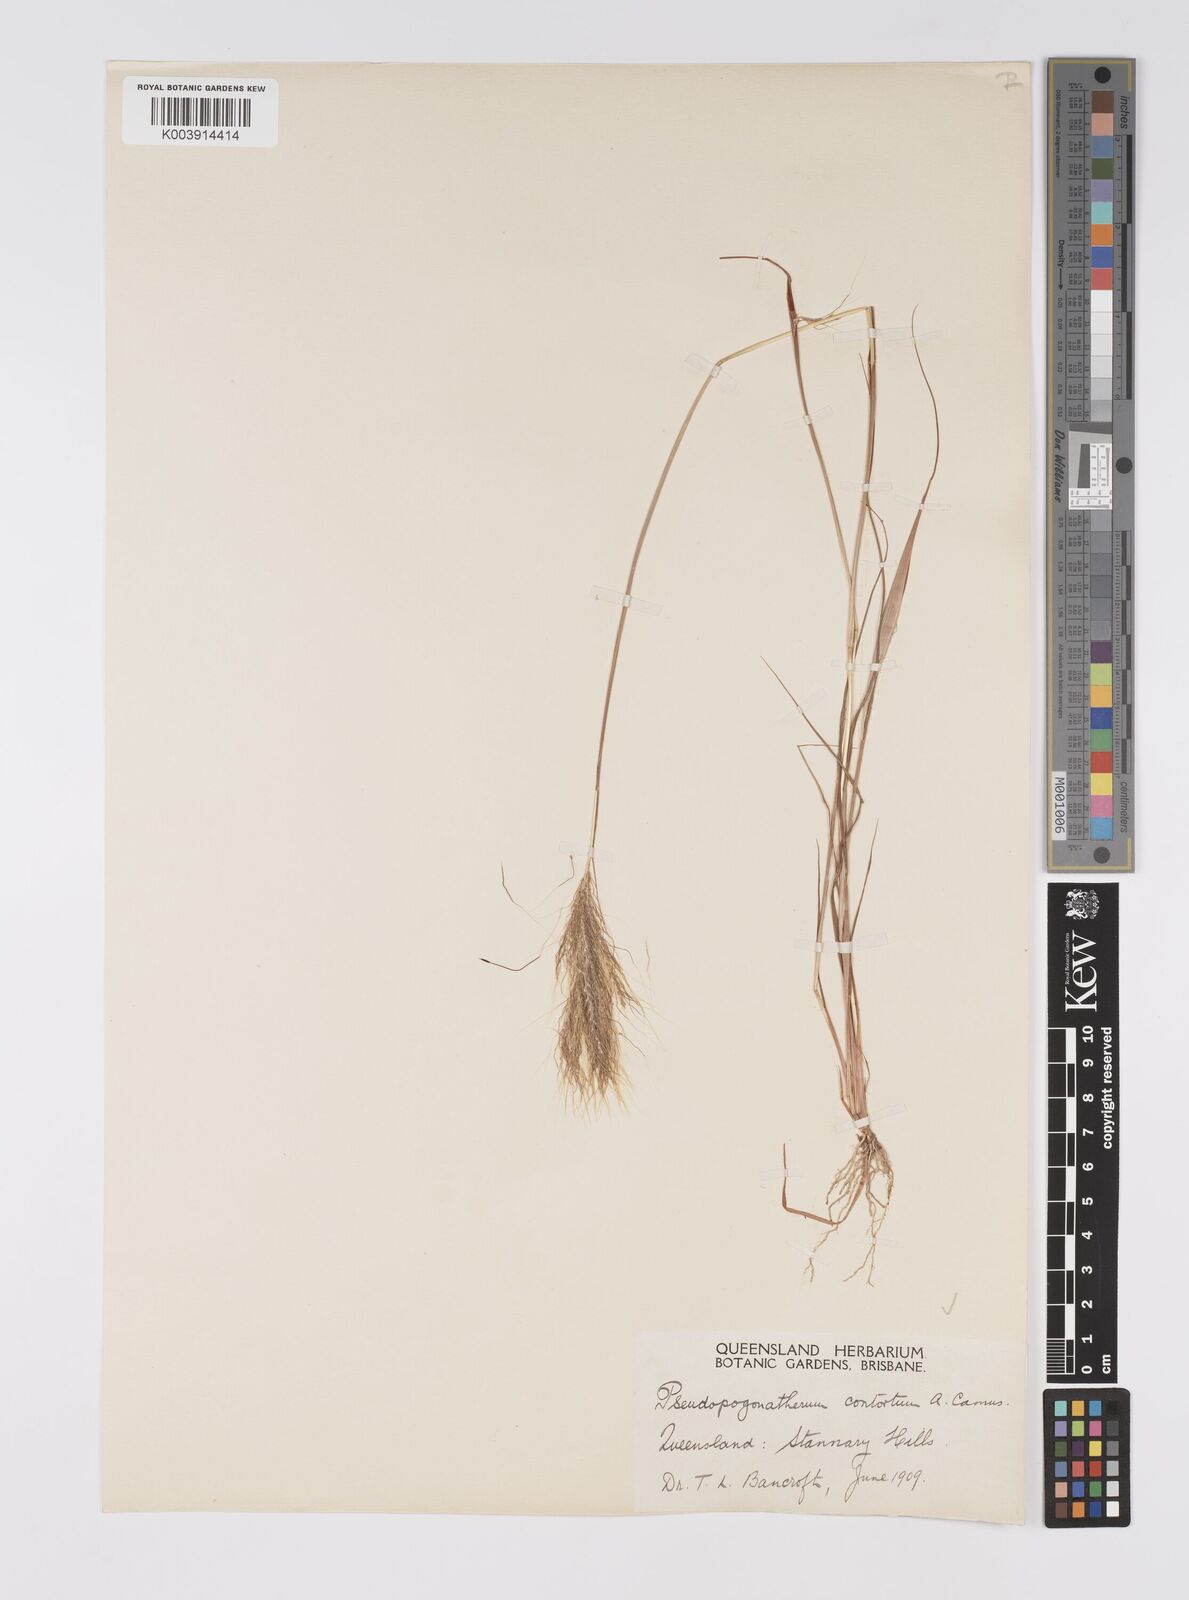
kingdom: Plantae
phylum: Tracheophyta
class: Liliopsida
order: Poales
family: Poaceae
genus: Pseudopogonatherum
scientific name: Pseudopogonatherum contortum
